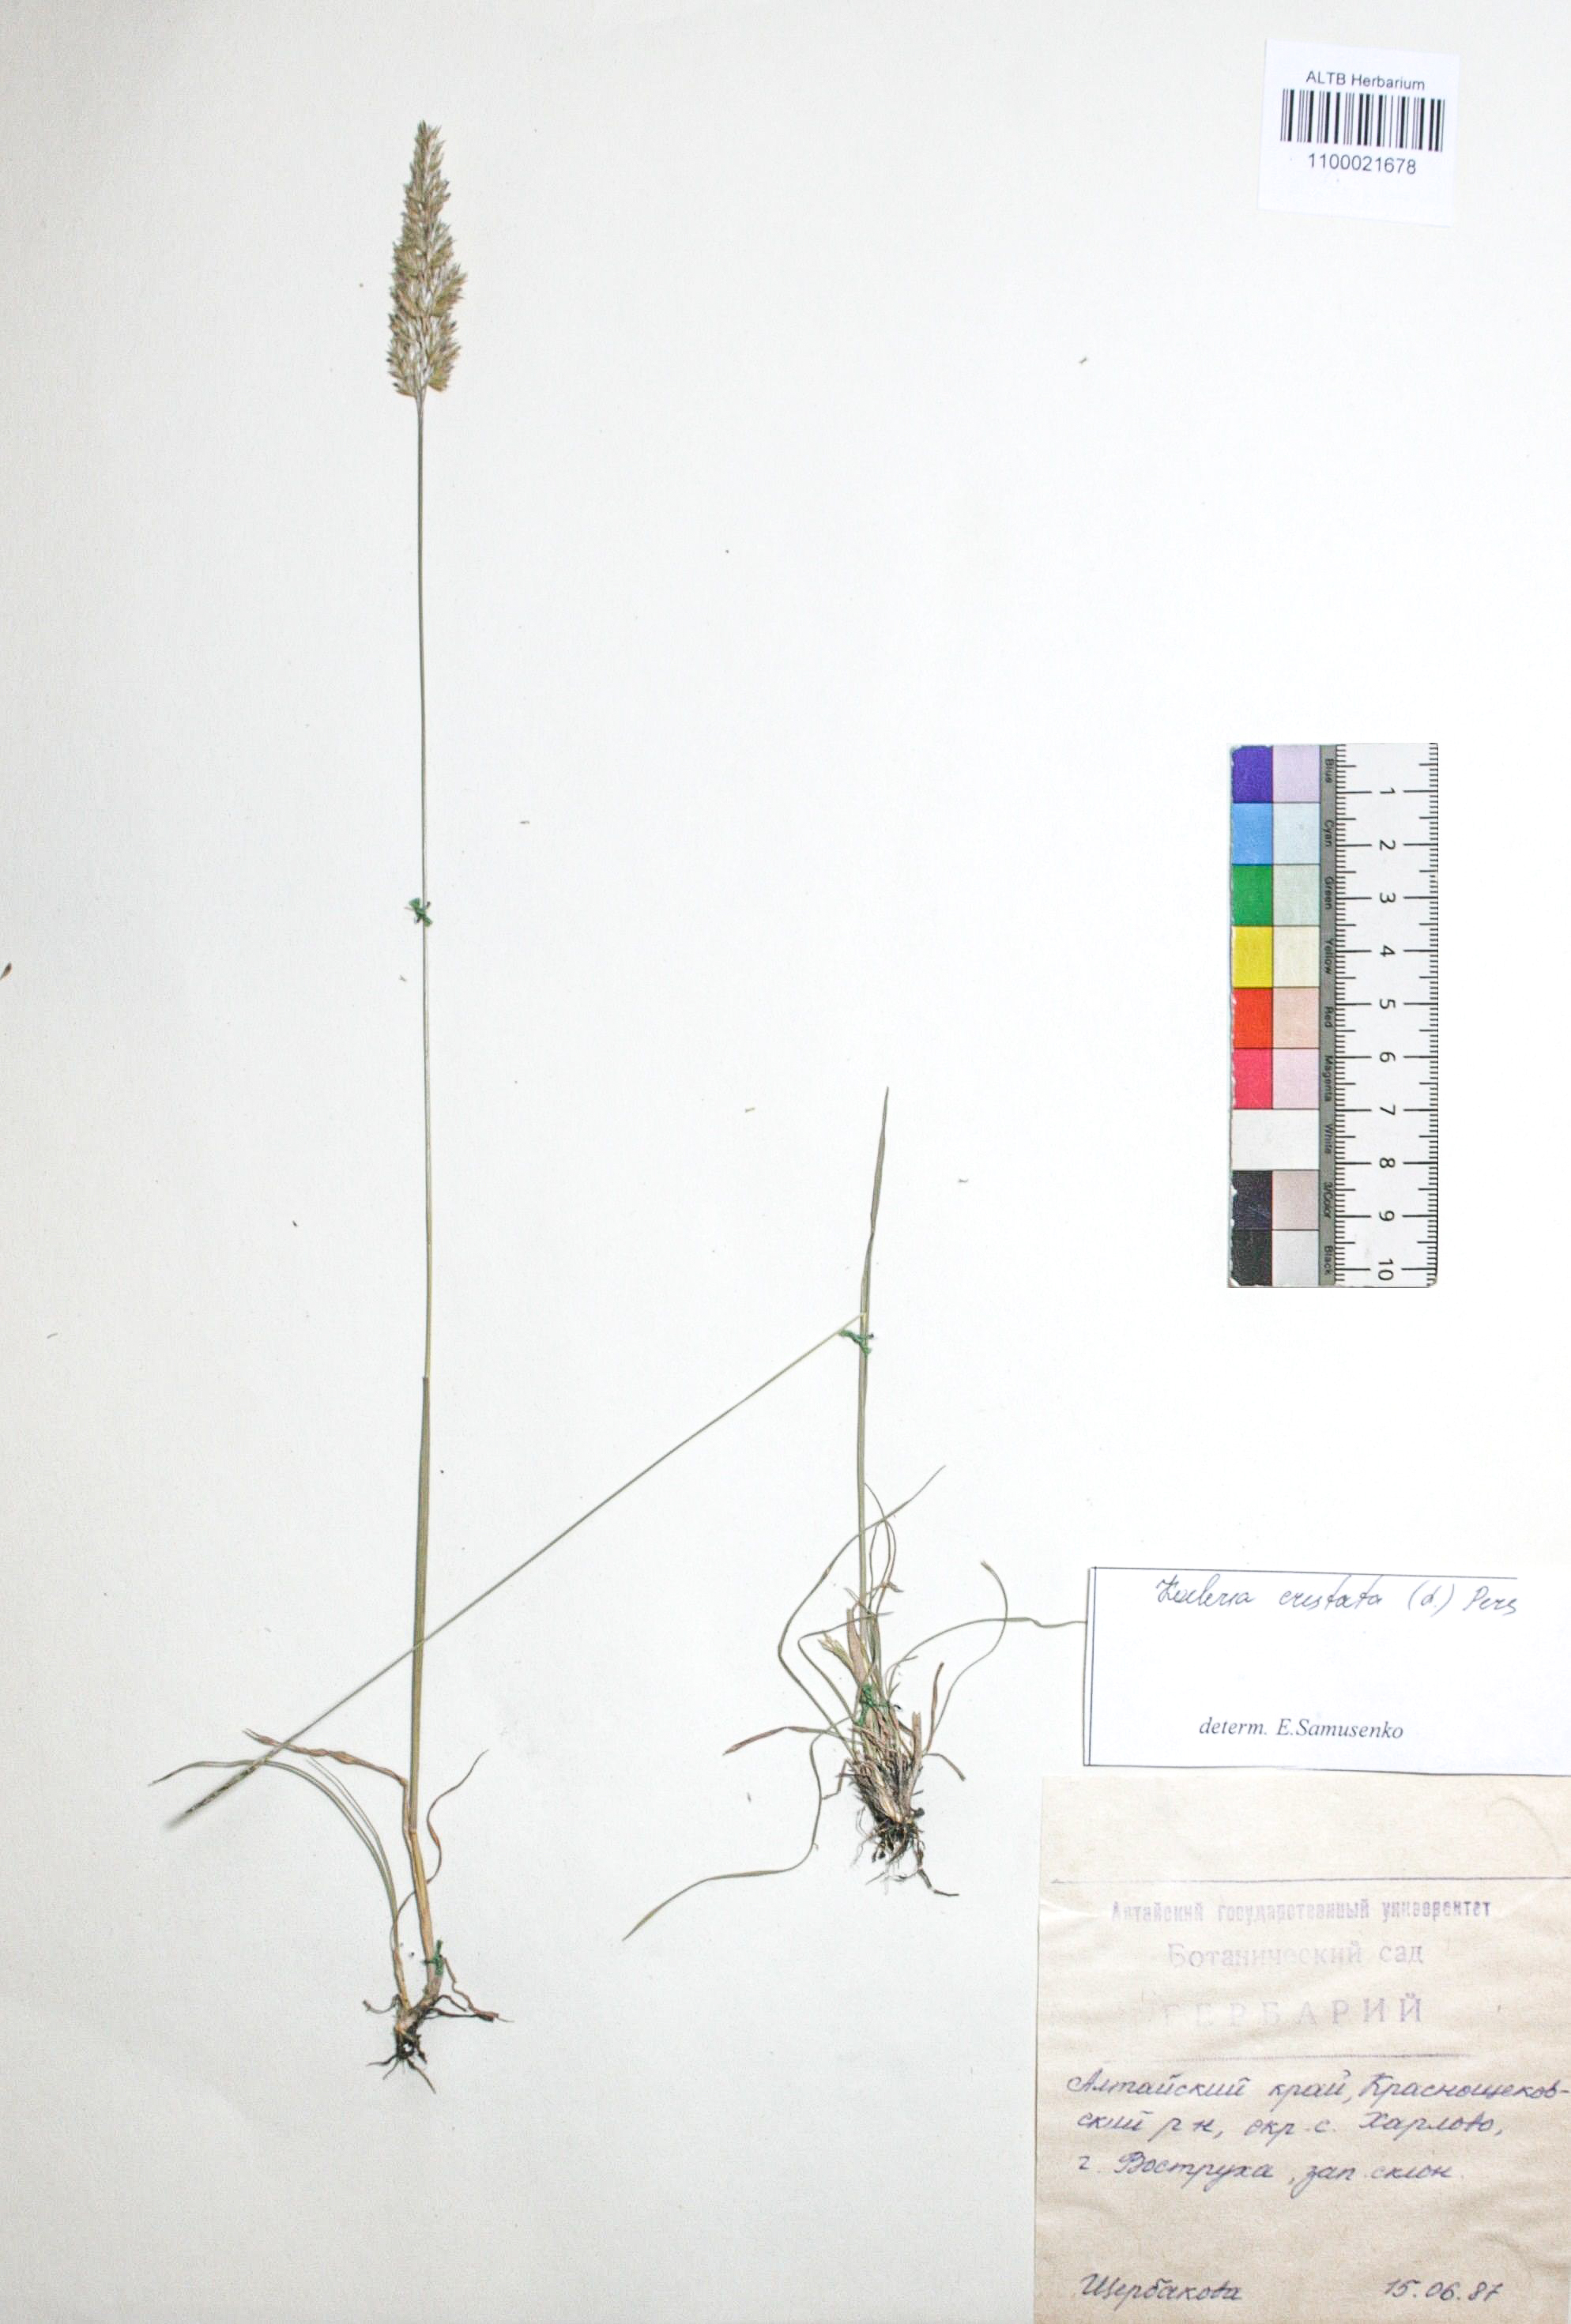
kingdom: Plantae
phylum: Tracheophyta
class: Liliopsida
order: Poales
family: Poaceae
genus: Koeleria
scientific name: Koeleria pyramidata
